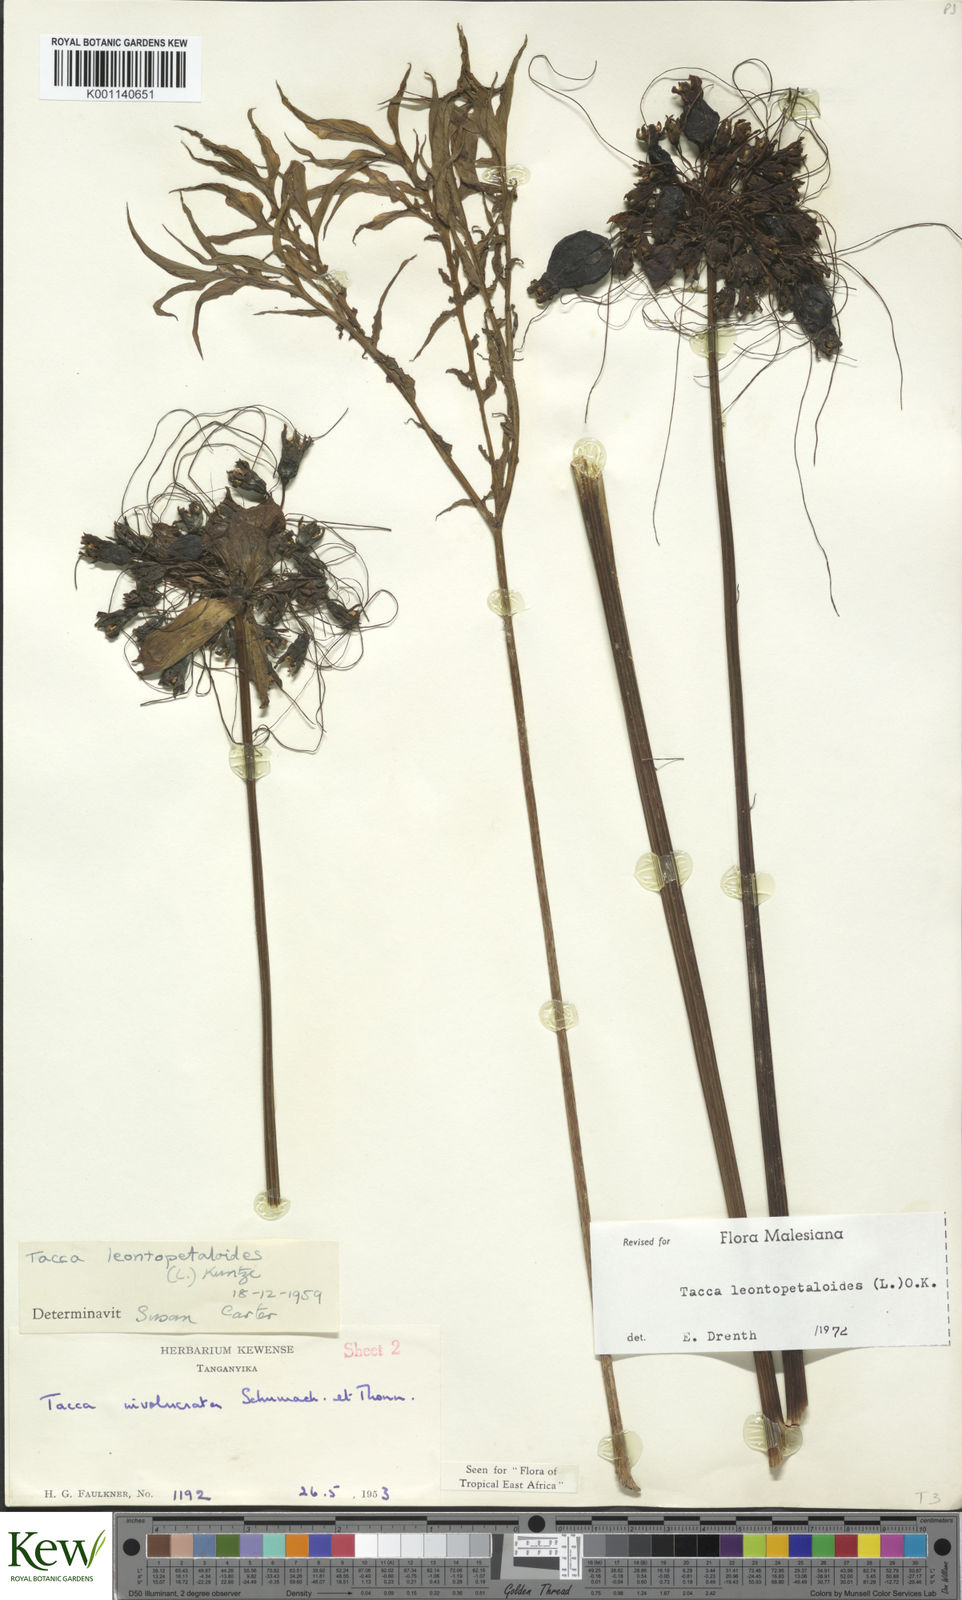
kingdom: Plantae
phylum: Tracheophyta
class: Liliopsida
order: Dioscoreales
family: Dioscoreaceae
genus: Tacca
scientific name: Tacca leontopetaloides
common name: Arrowroot
